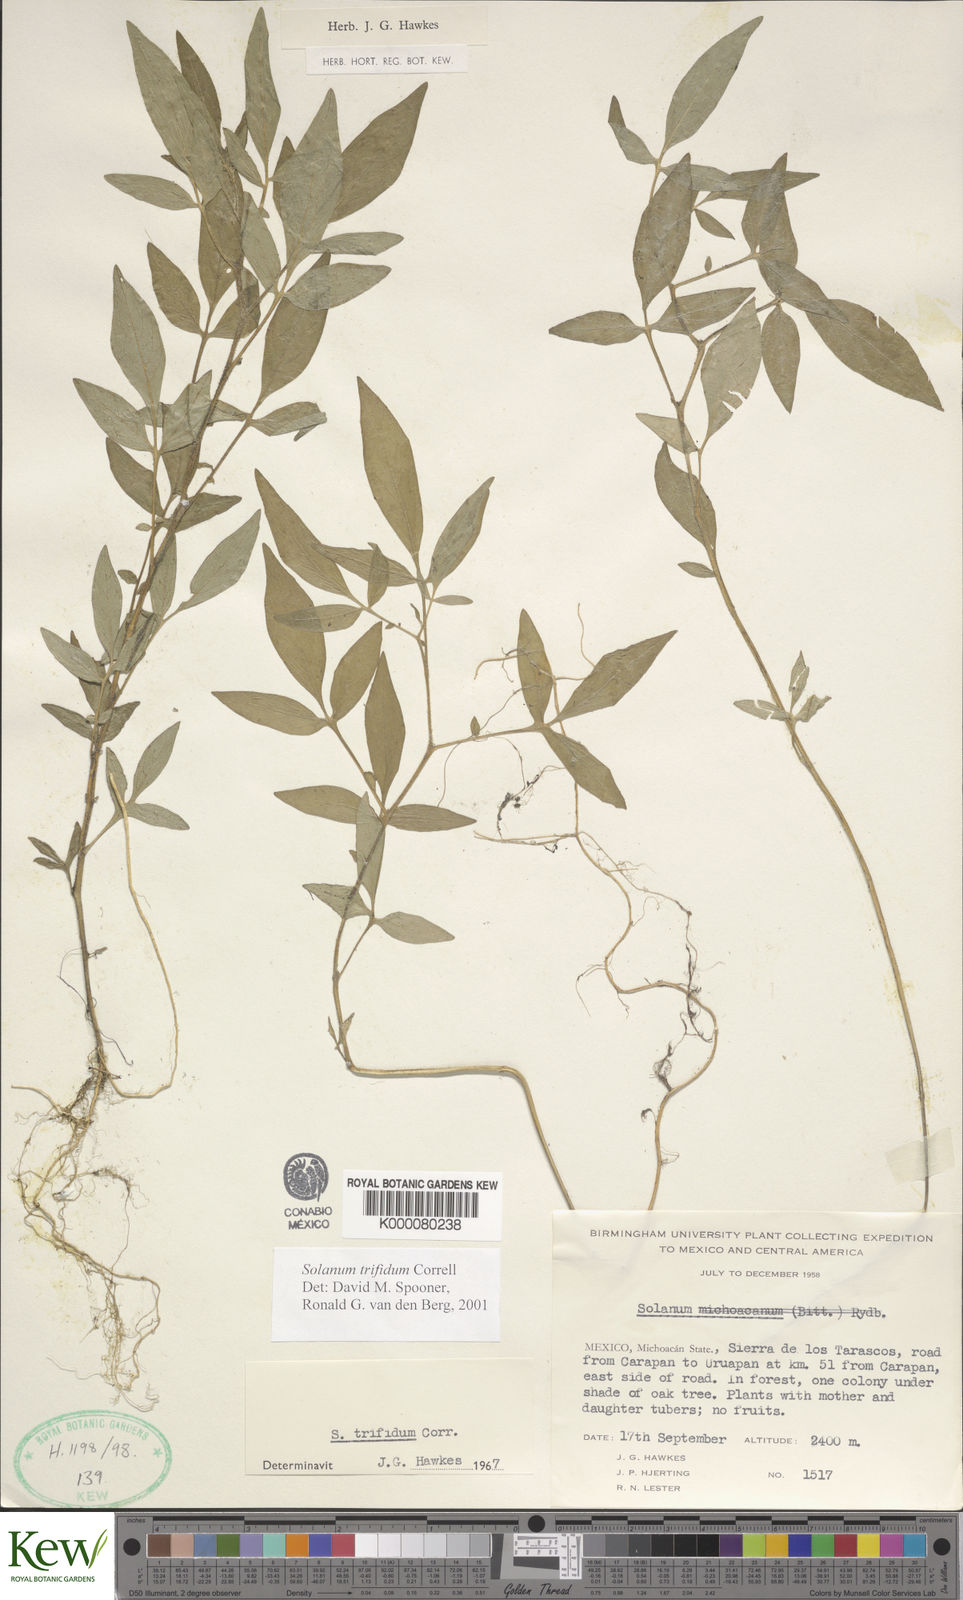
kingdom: Plantae
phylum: Tracheophyta
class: Magnoliopsida
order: Solanales
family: Solanaceae
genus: Solanum
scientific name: Solanum trifidum
